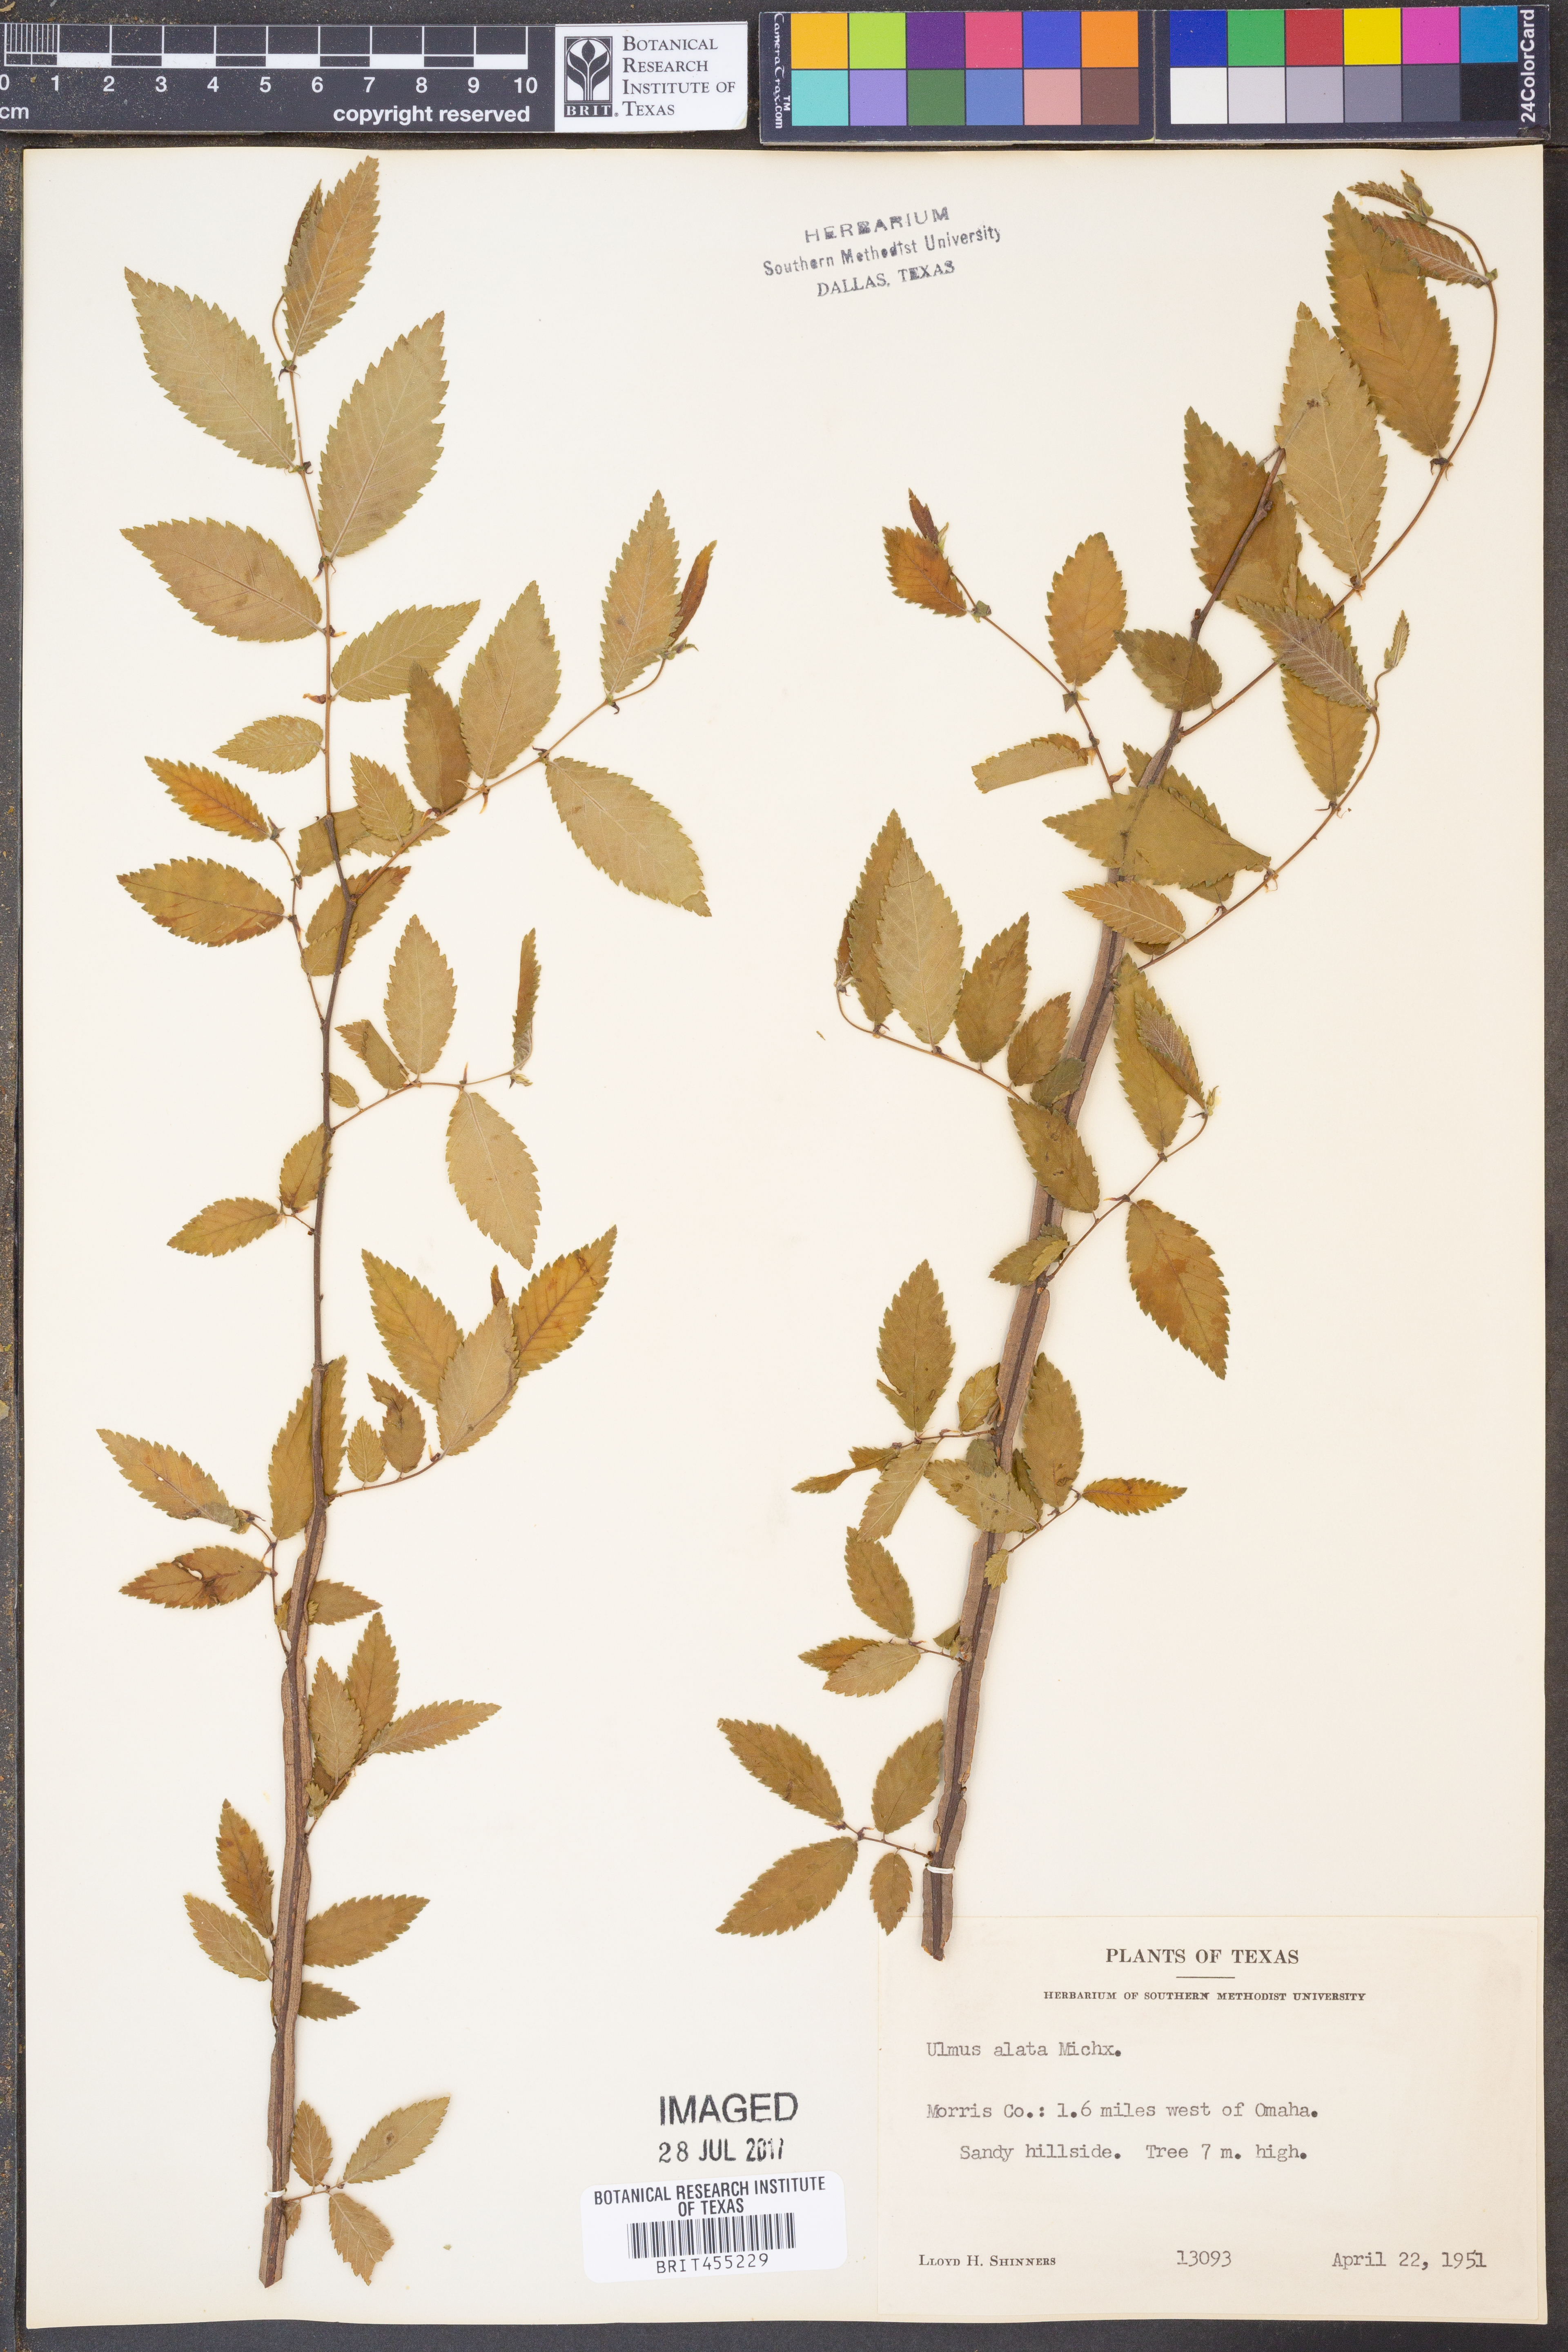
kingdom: Plantae
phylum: Tracheophyta
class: Magnoliopsida
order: Rosales
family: Ulmaceae
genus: Ulmus
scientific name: Ulmus alata
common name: Winged elm
